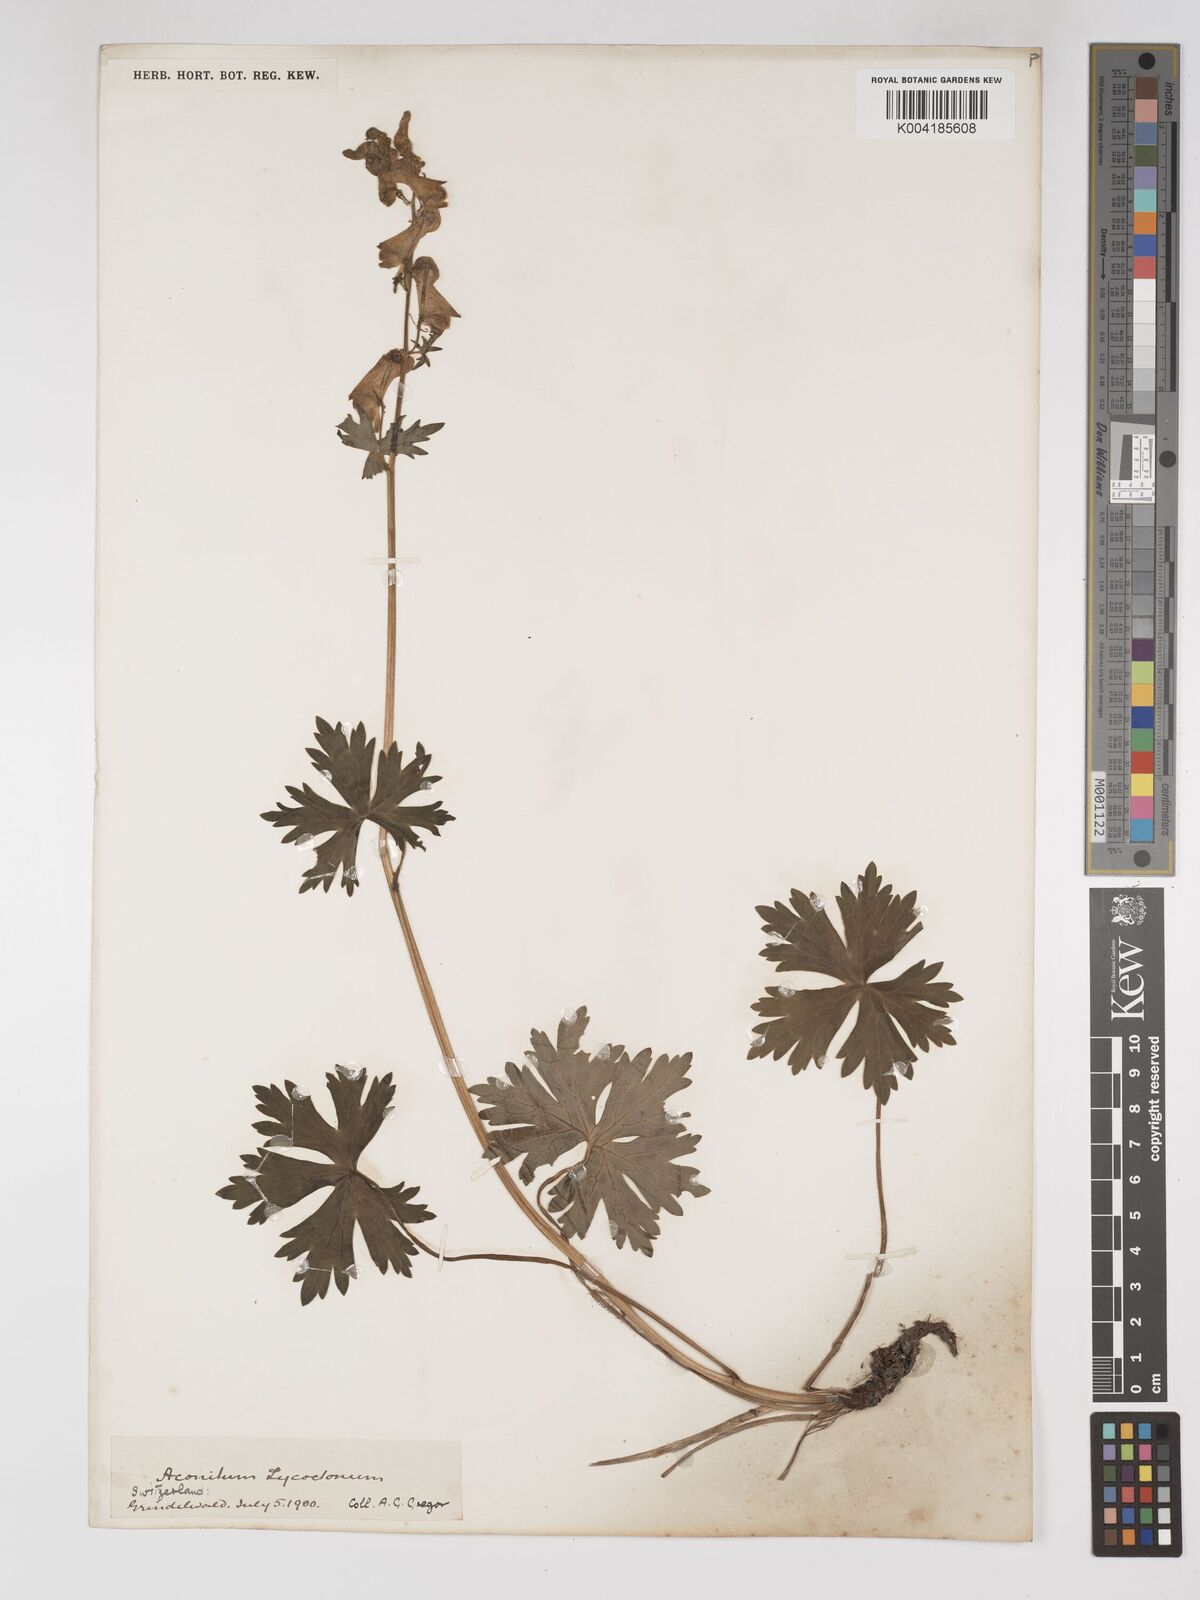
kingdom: Plantae
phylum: Tracheophyta
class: Magnoliopsida
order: Ranunculales
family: Ranunculaceae
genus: Aconitum
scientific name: Aconitum lycoctonum
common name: Wolf's-bane
